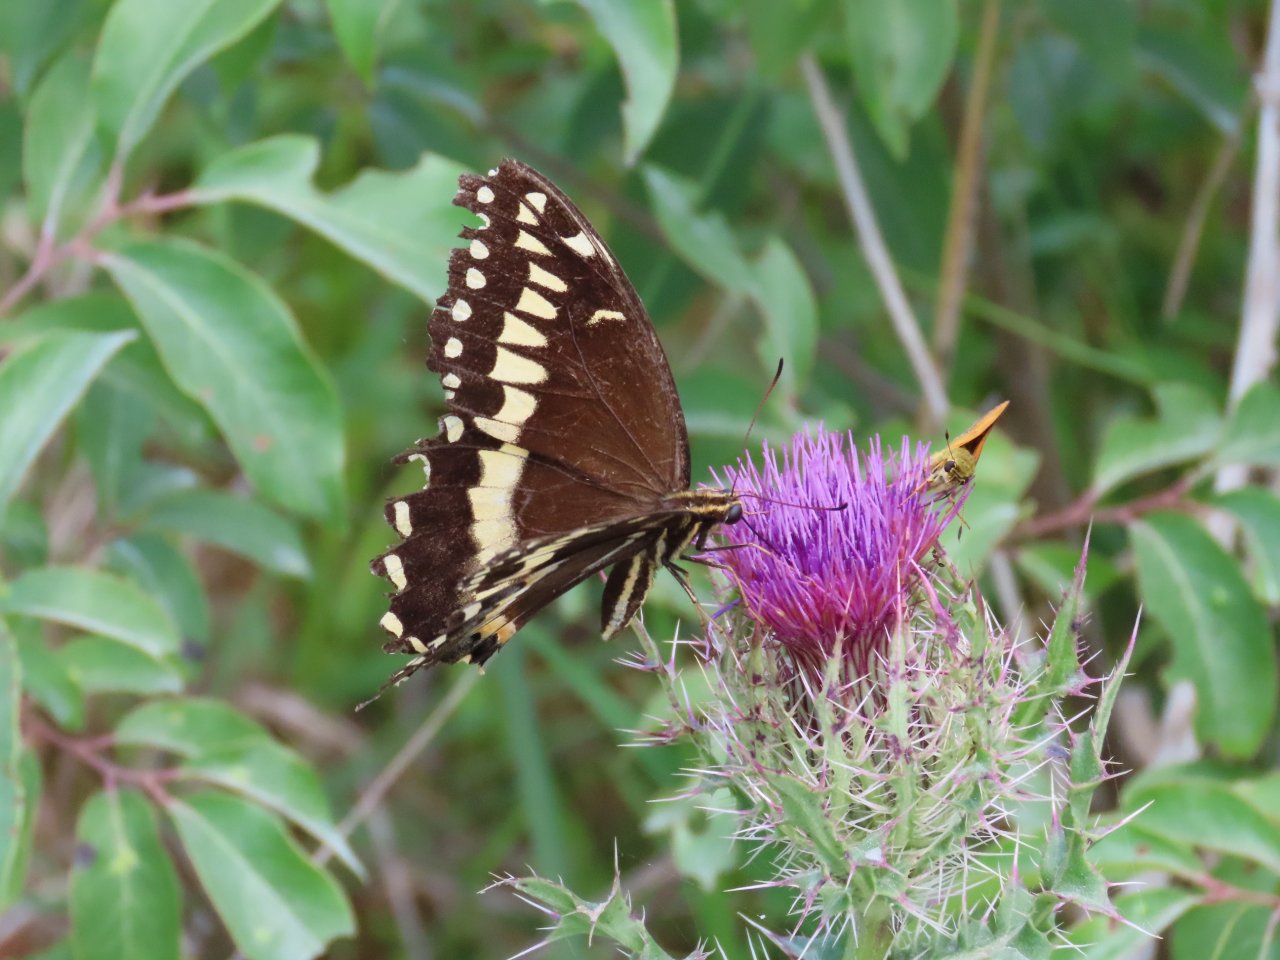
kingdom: Animalia
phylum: Arthropoda
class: Insecta
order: Lepidoptera
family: Papilionidae
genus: Pterourus
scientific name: Pterourus palamedes
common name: Palamedes Swallowtail
